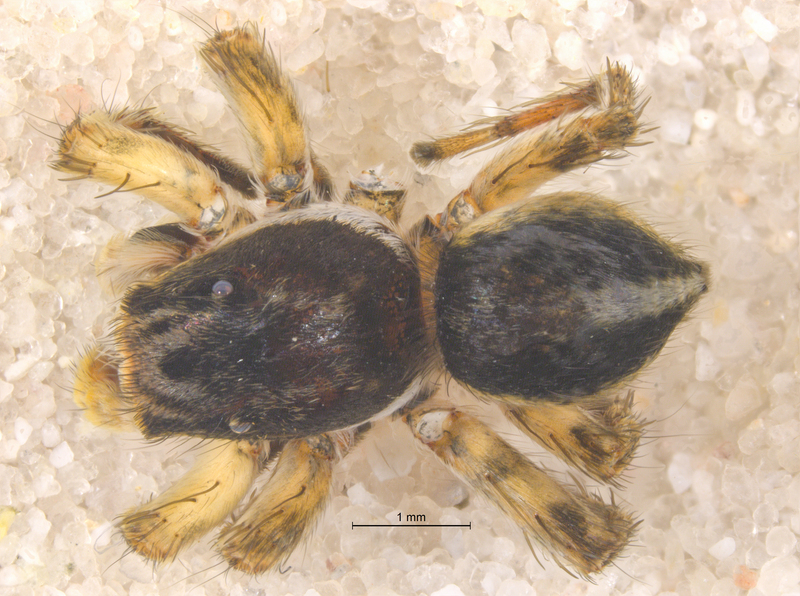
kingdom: Animalia
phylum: Arthropoda
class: Arachnida
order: Araneae
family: Salticidae
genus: Aelurillus
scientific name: Aelurillus v-insignitus
